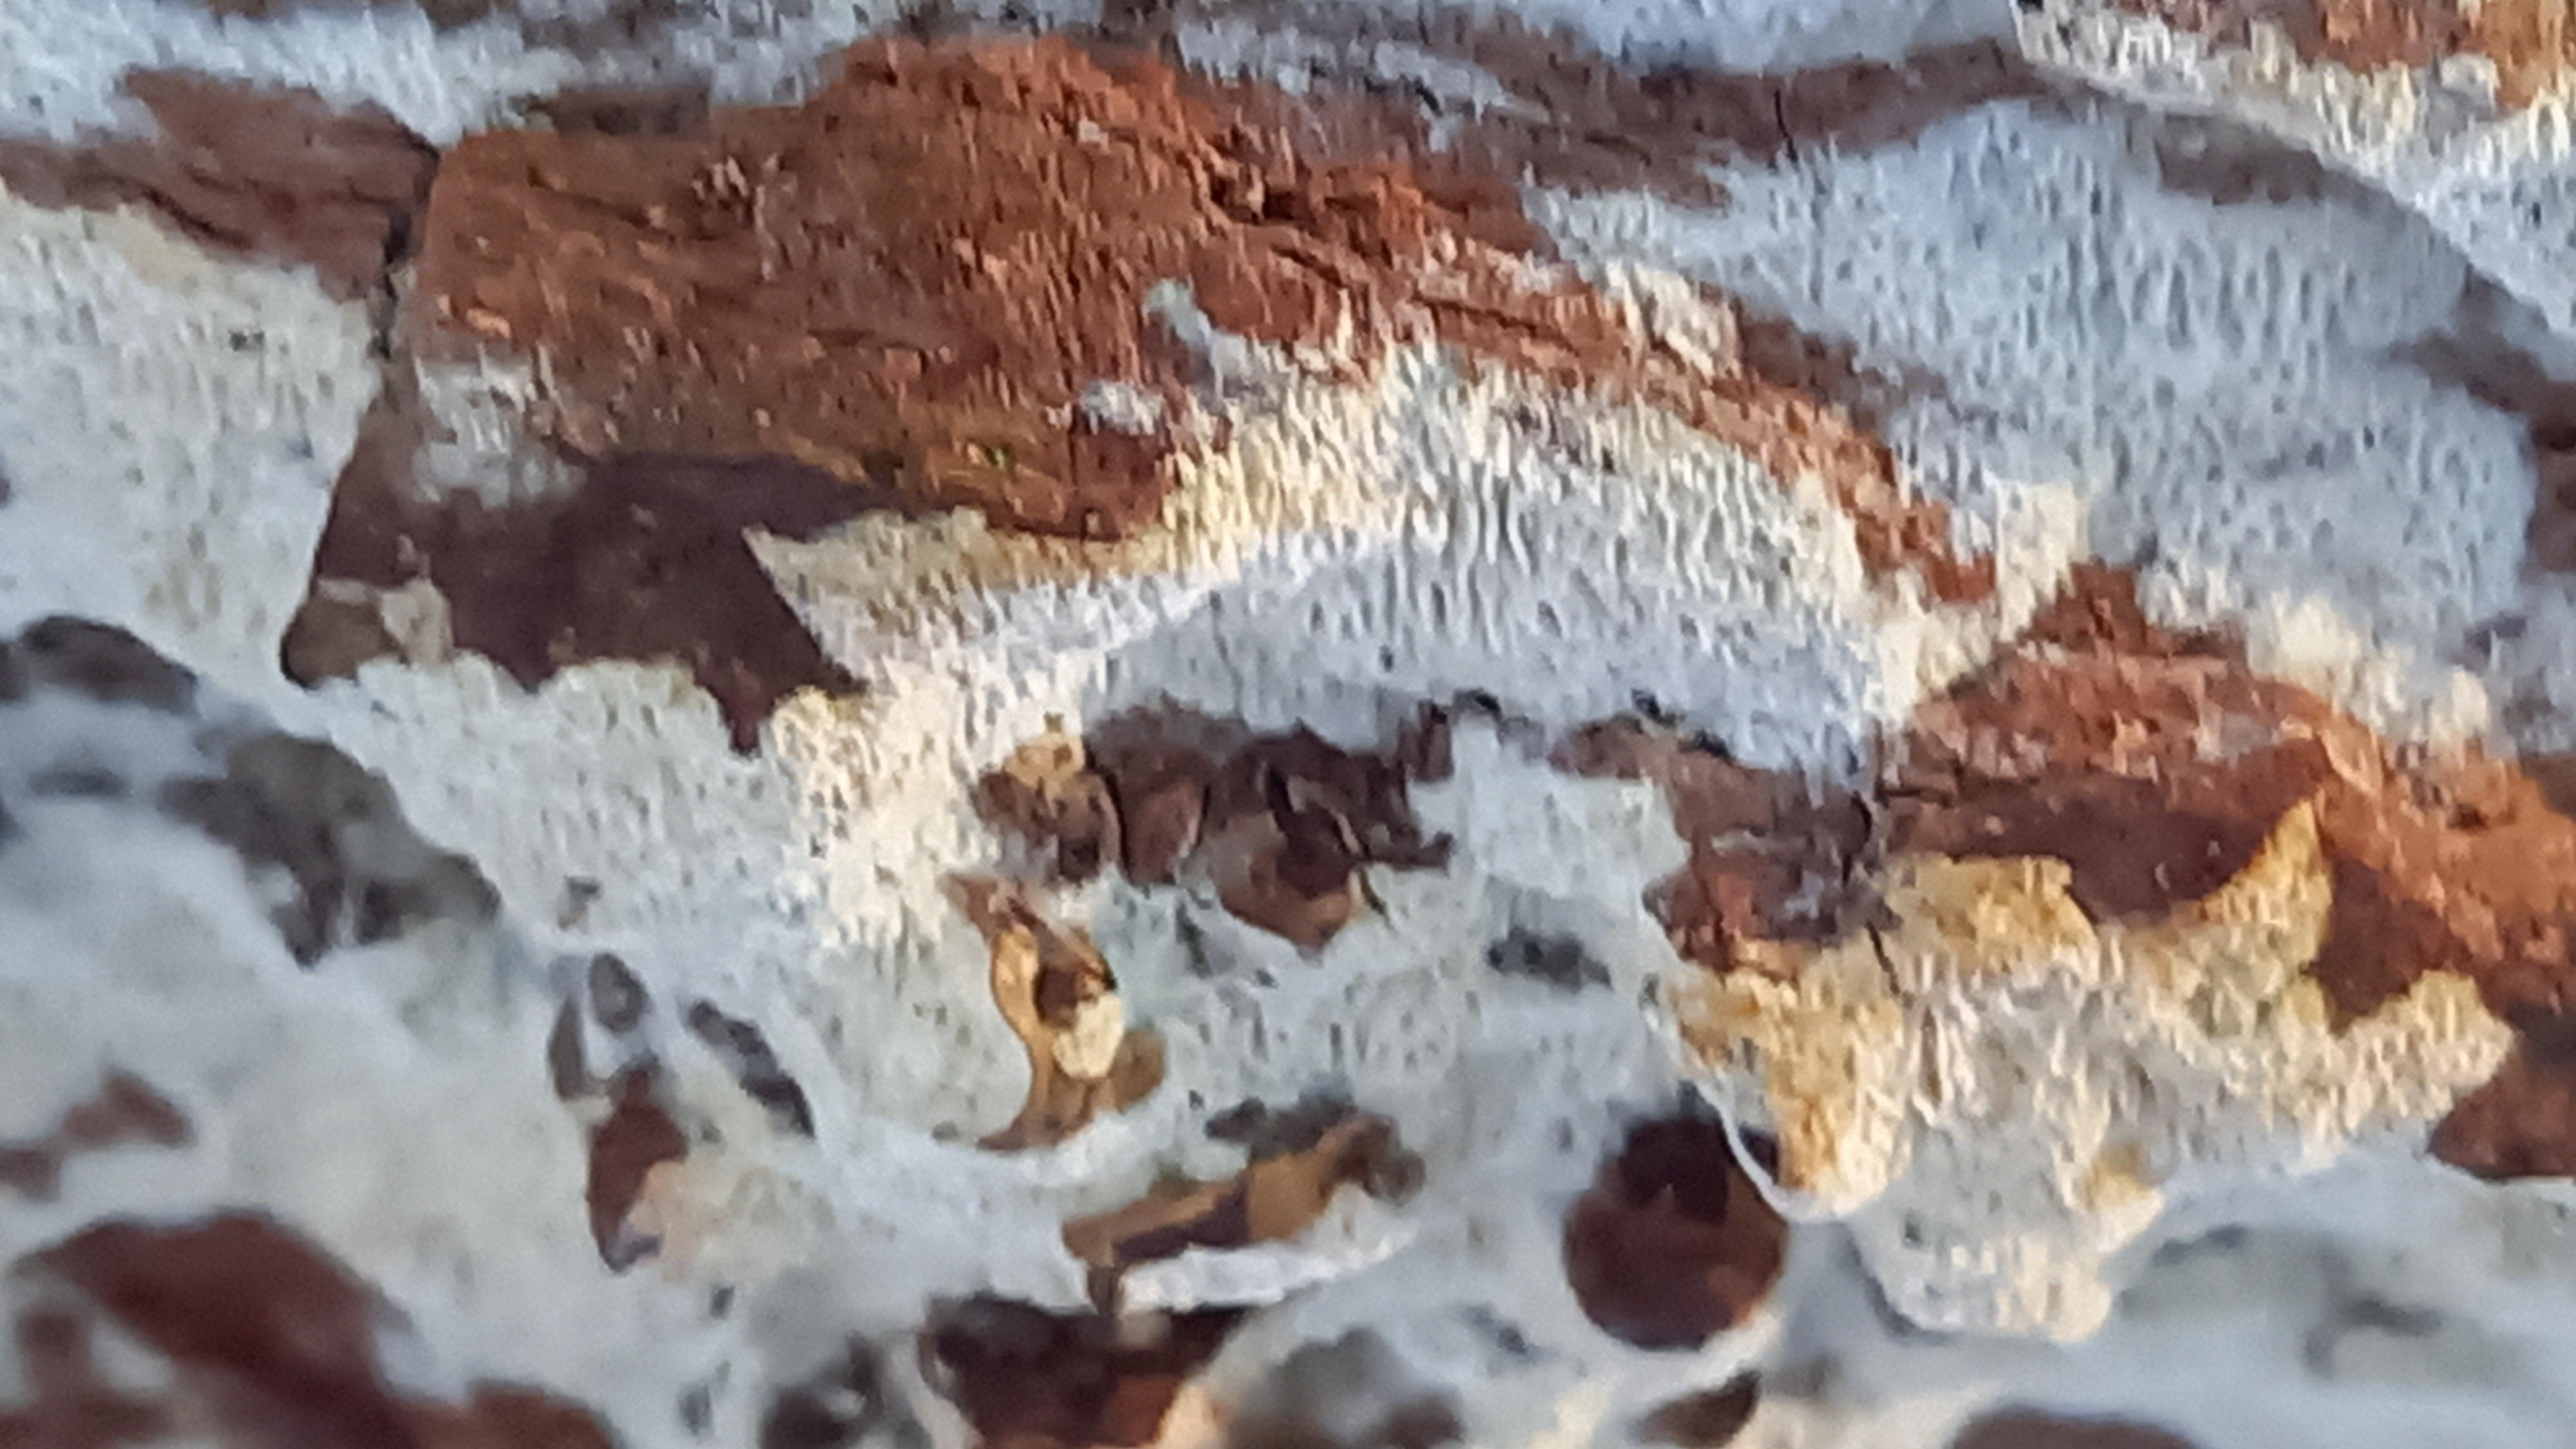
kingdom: Fungi
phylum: Basidiomycota
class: Agaricomycetes
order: Hymenochaetales
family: Schizoporaceae
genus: Xylodon
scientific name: Xylodon subtropicus
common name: labyrint-tandsvamp
